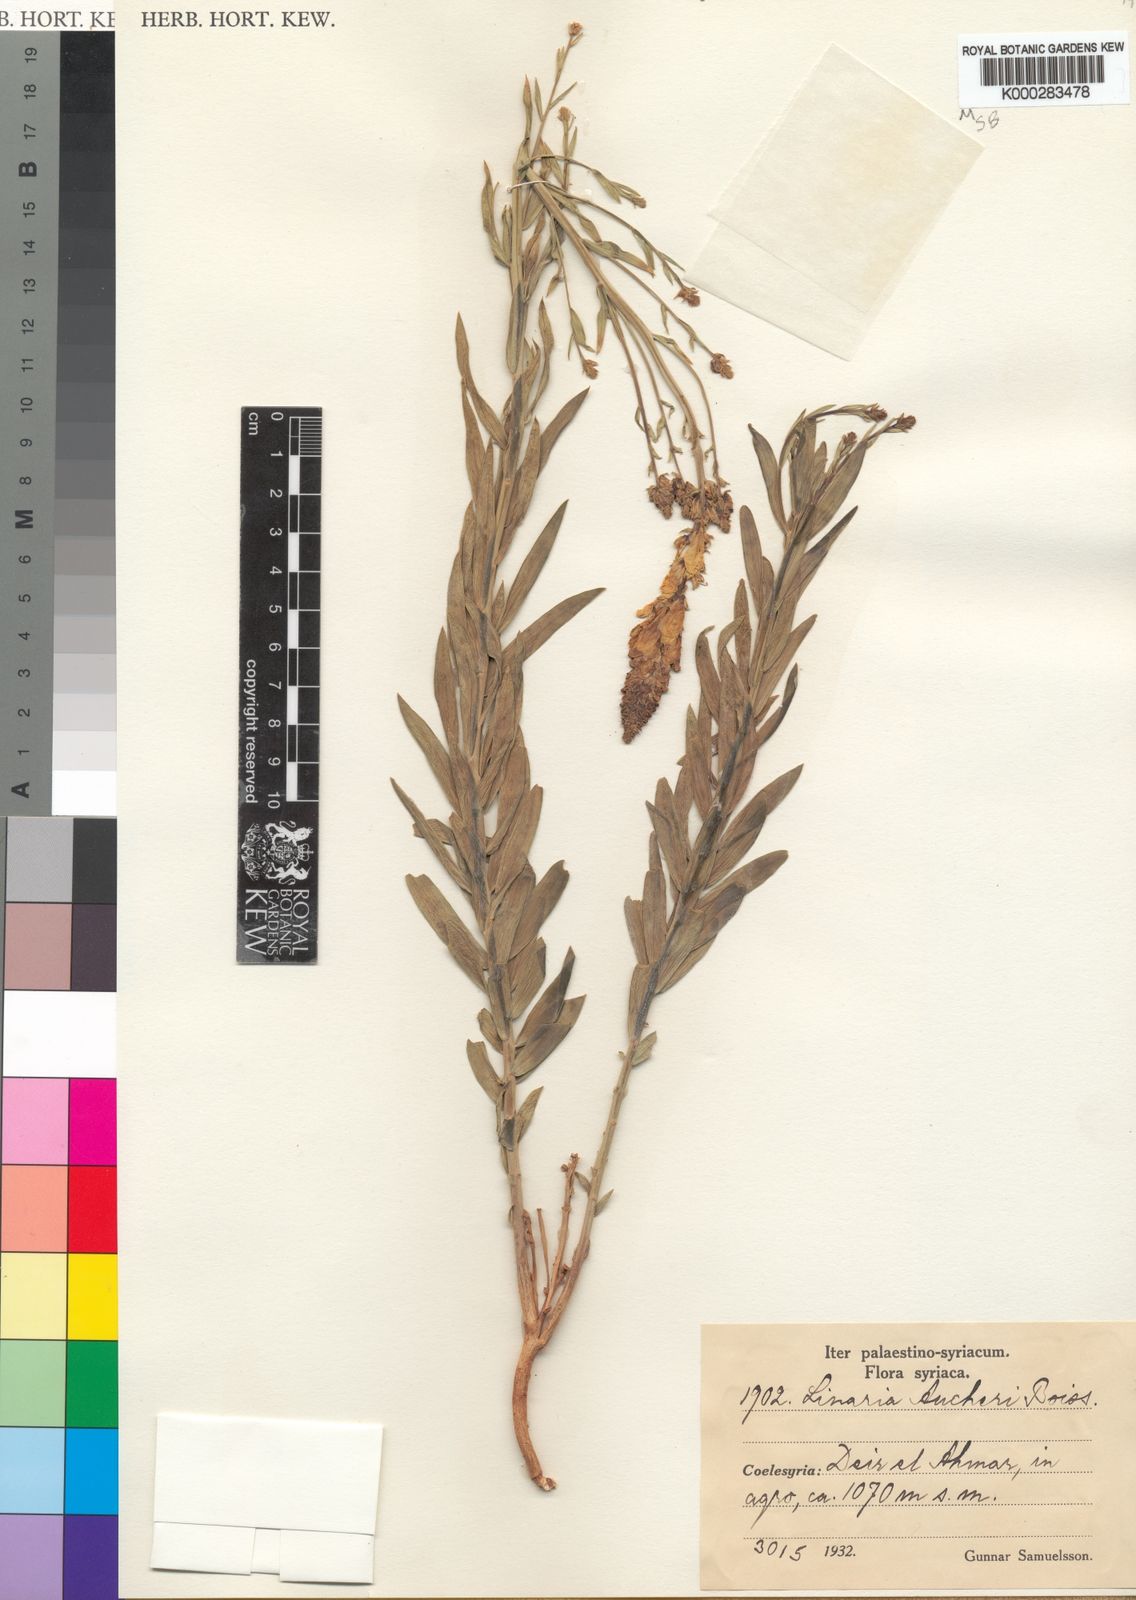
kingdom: Plantae
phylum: Tracheophyta
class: Magnoliopsida
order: Lamiales
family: Plantaginaceae
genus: Linaria
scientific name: Linaria kurdica
